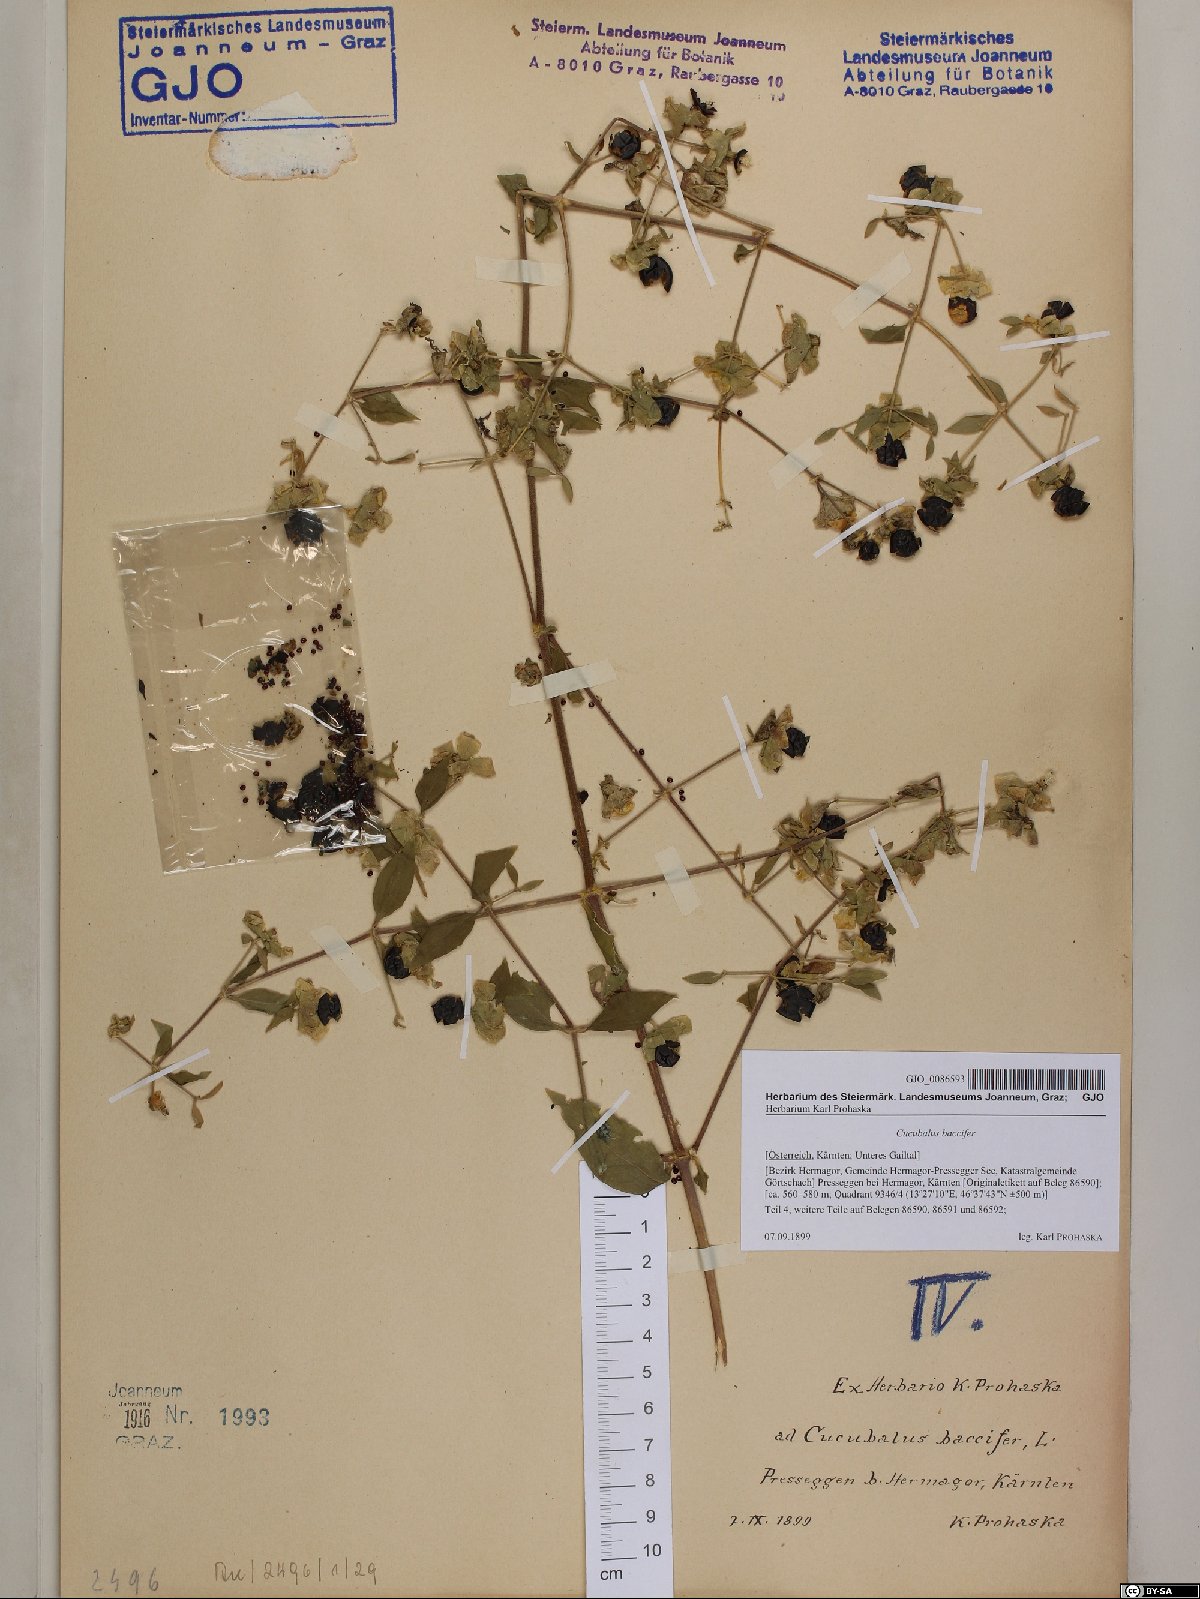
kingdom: Plantae
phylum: Tracheophyta
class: Magnoliopsida
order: Caryophyllales
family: Caryophyllaceae
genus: Silene
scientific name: Silene baccifera
